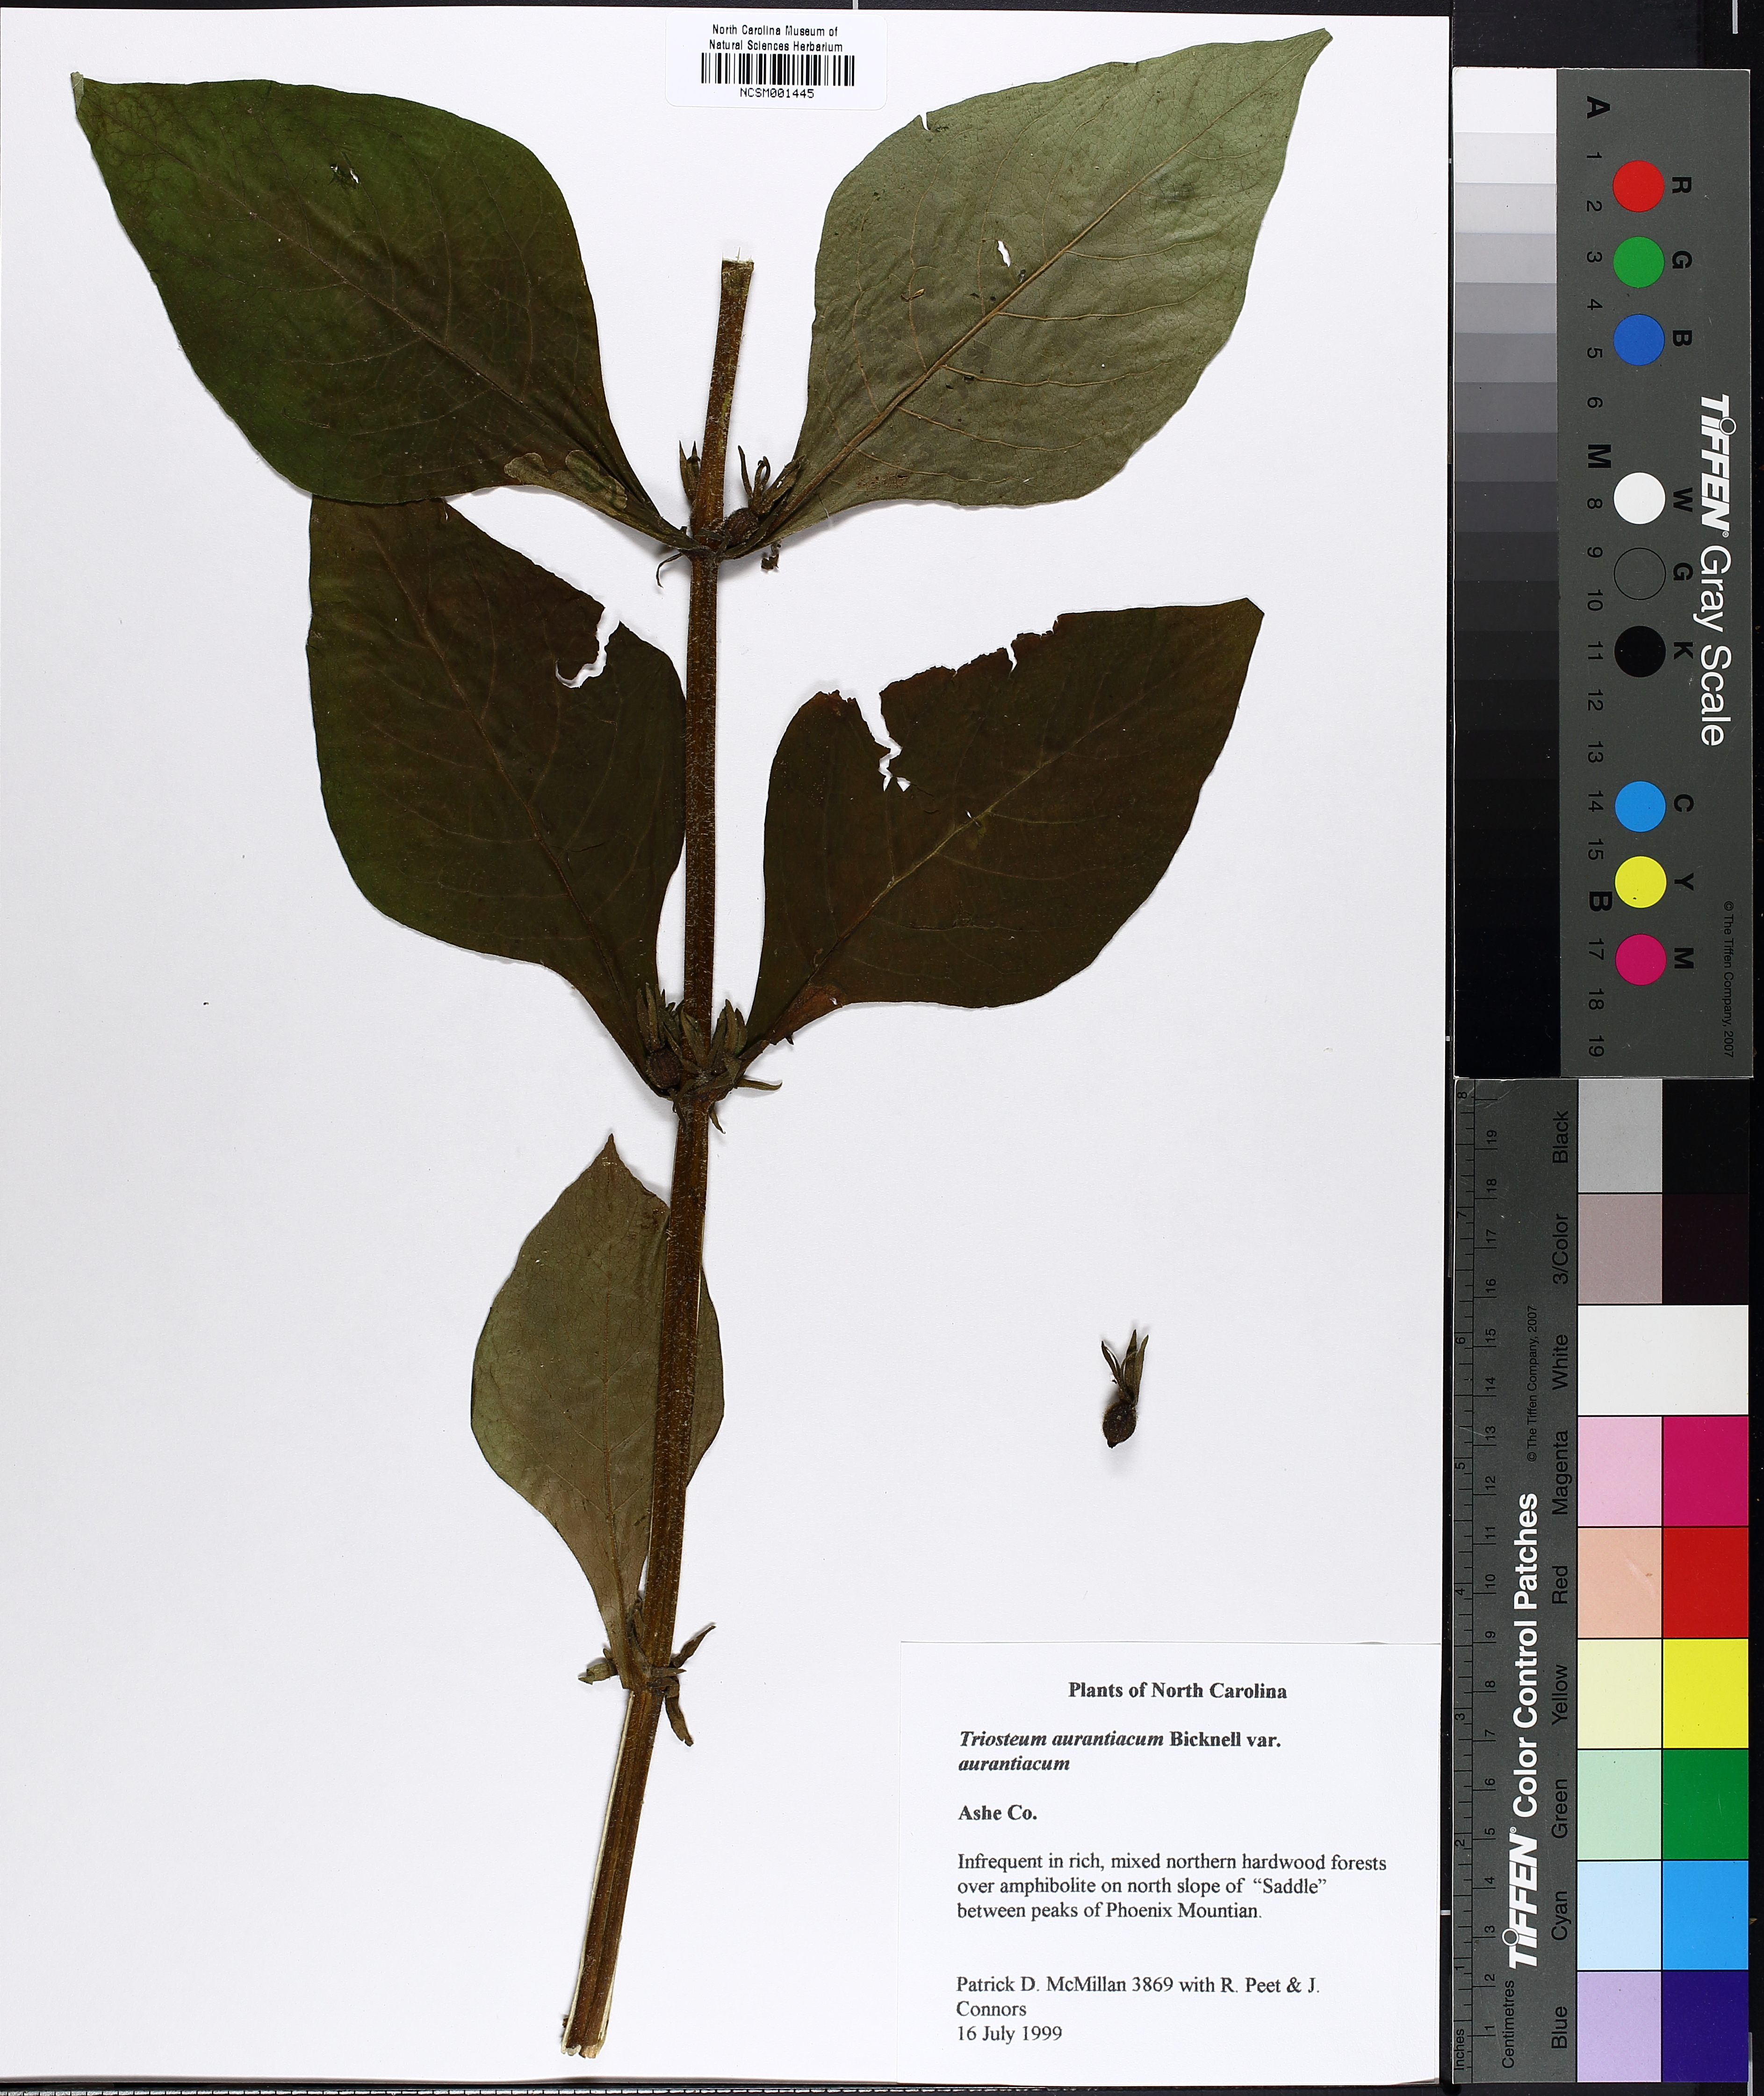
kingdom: Plantae
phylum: Tracheophyta
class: Magnoliopsida
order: Dipsacales
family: Caprifoliaceae
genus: Triosteum
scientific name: Triosteum aurantiacum
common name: Coffee tinker's-weed
